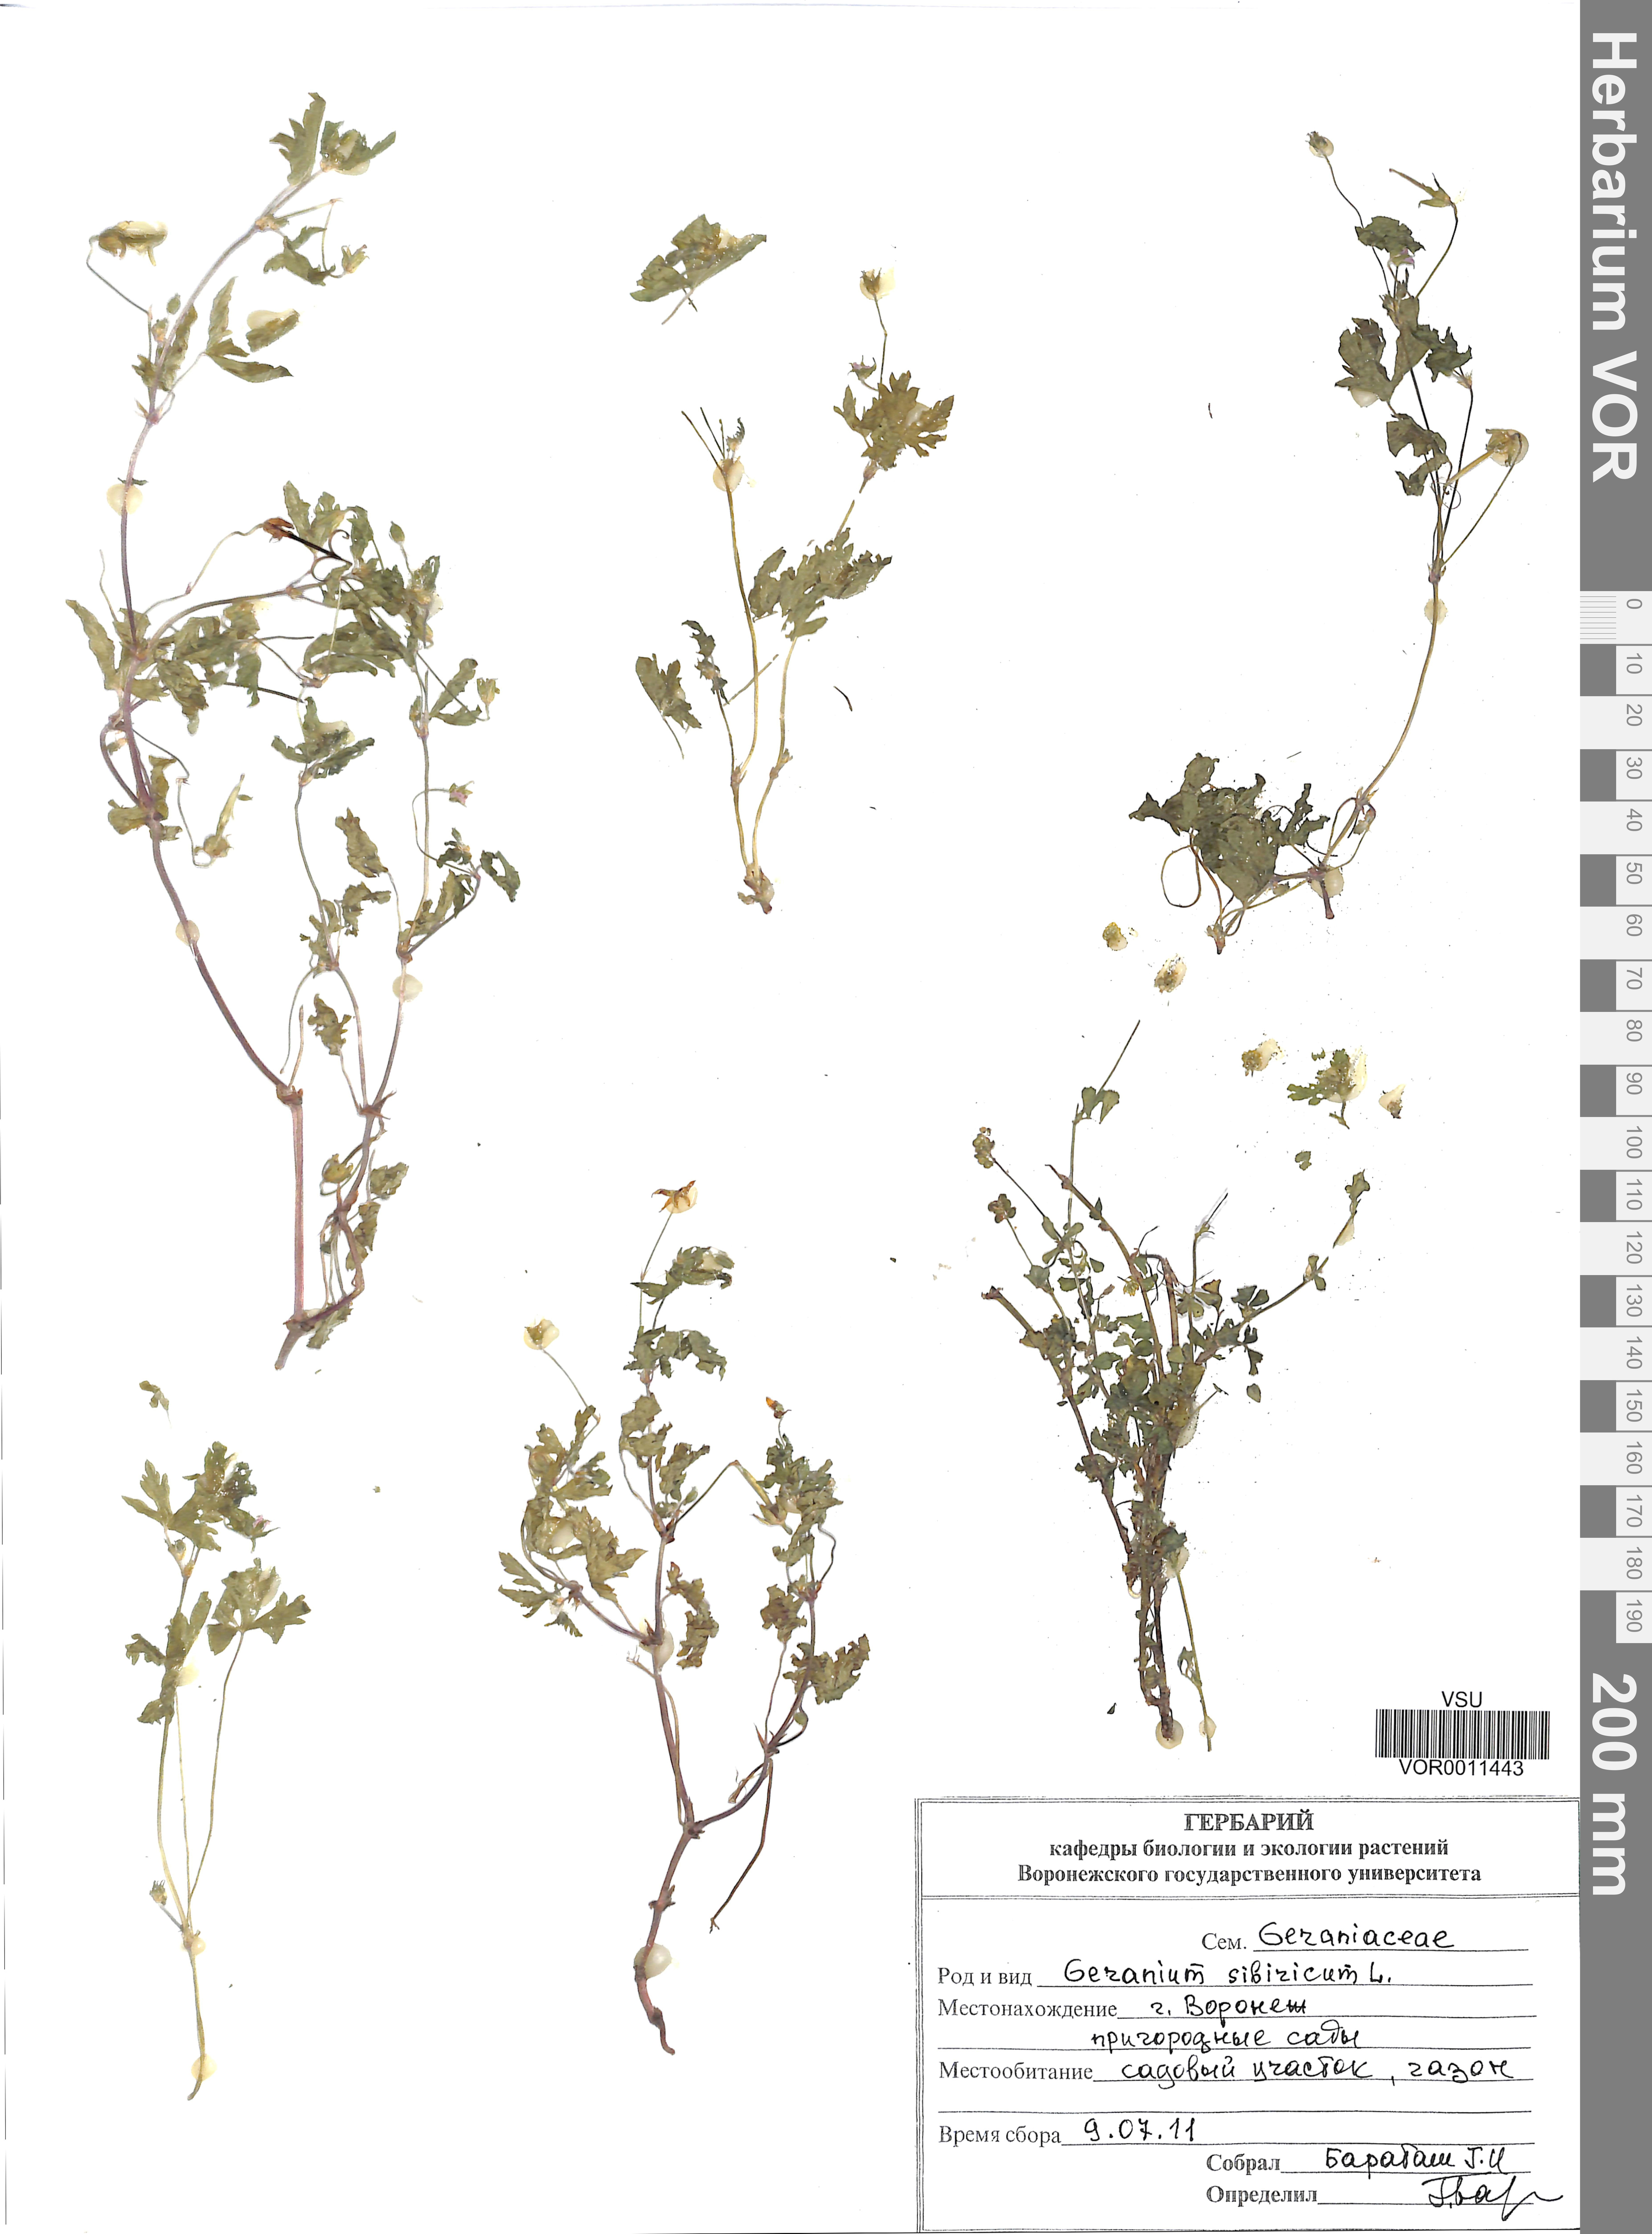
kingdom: Plantae
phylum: Tracheophyta
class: Magnoliopsida
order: Geraniales
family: Geraniaceae
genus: Geranium
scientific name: Geranium sibiricum
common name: Siberian crane's-bill
